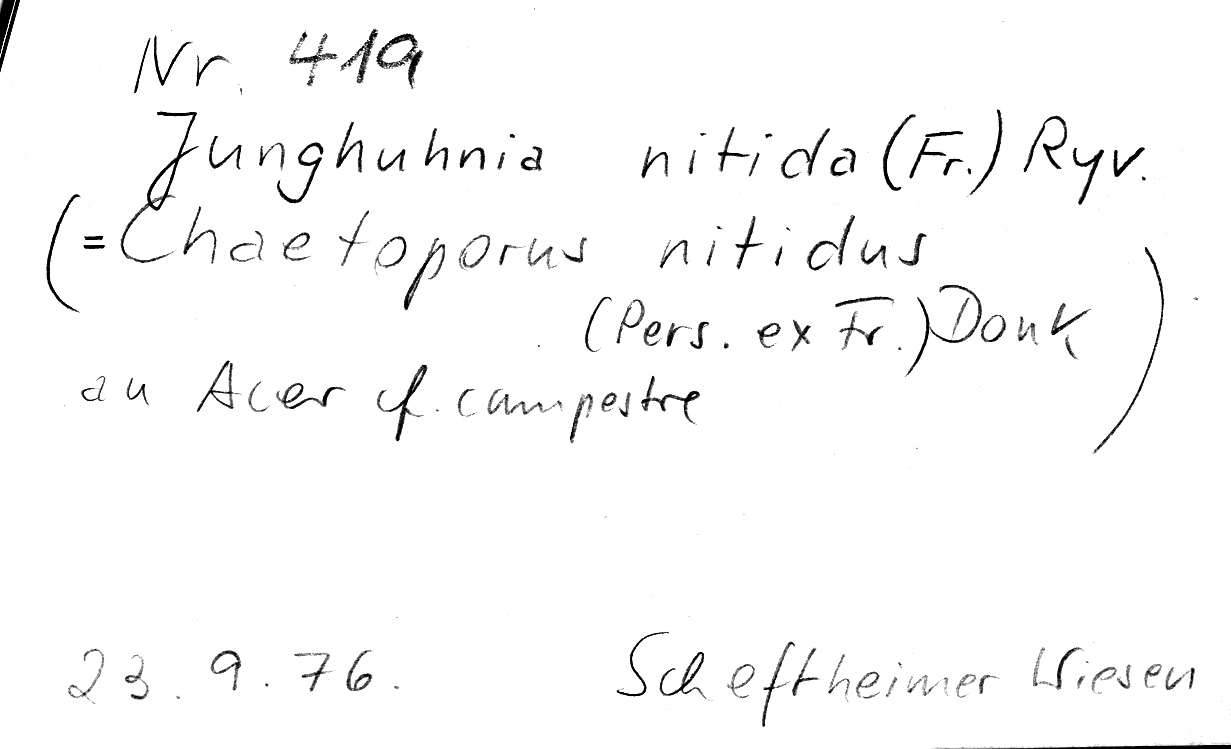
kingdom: Fungi
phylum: Basidiomycota
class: Agaricomycetes
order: Polyporales
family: Steccherinaceae
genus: Junghuhnia
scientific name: Junghuhnia nitida
